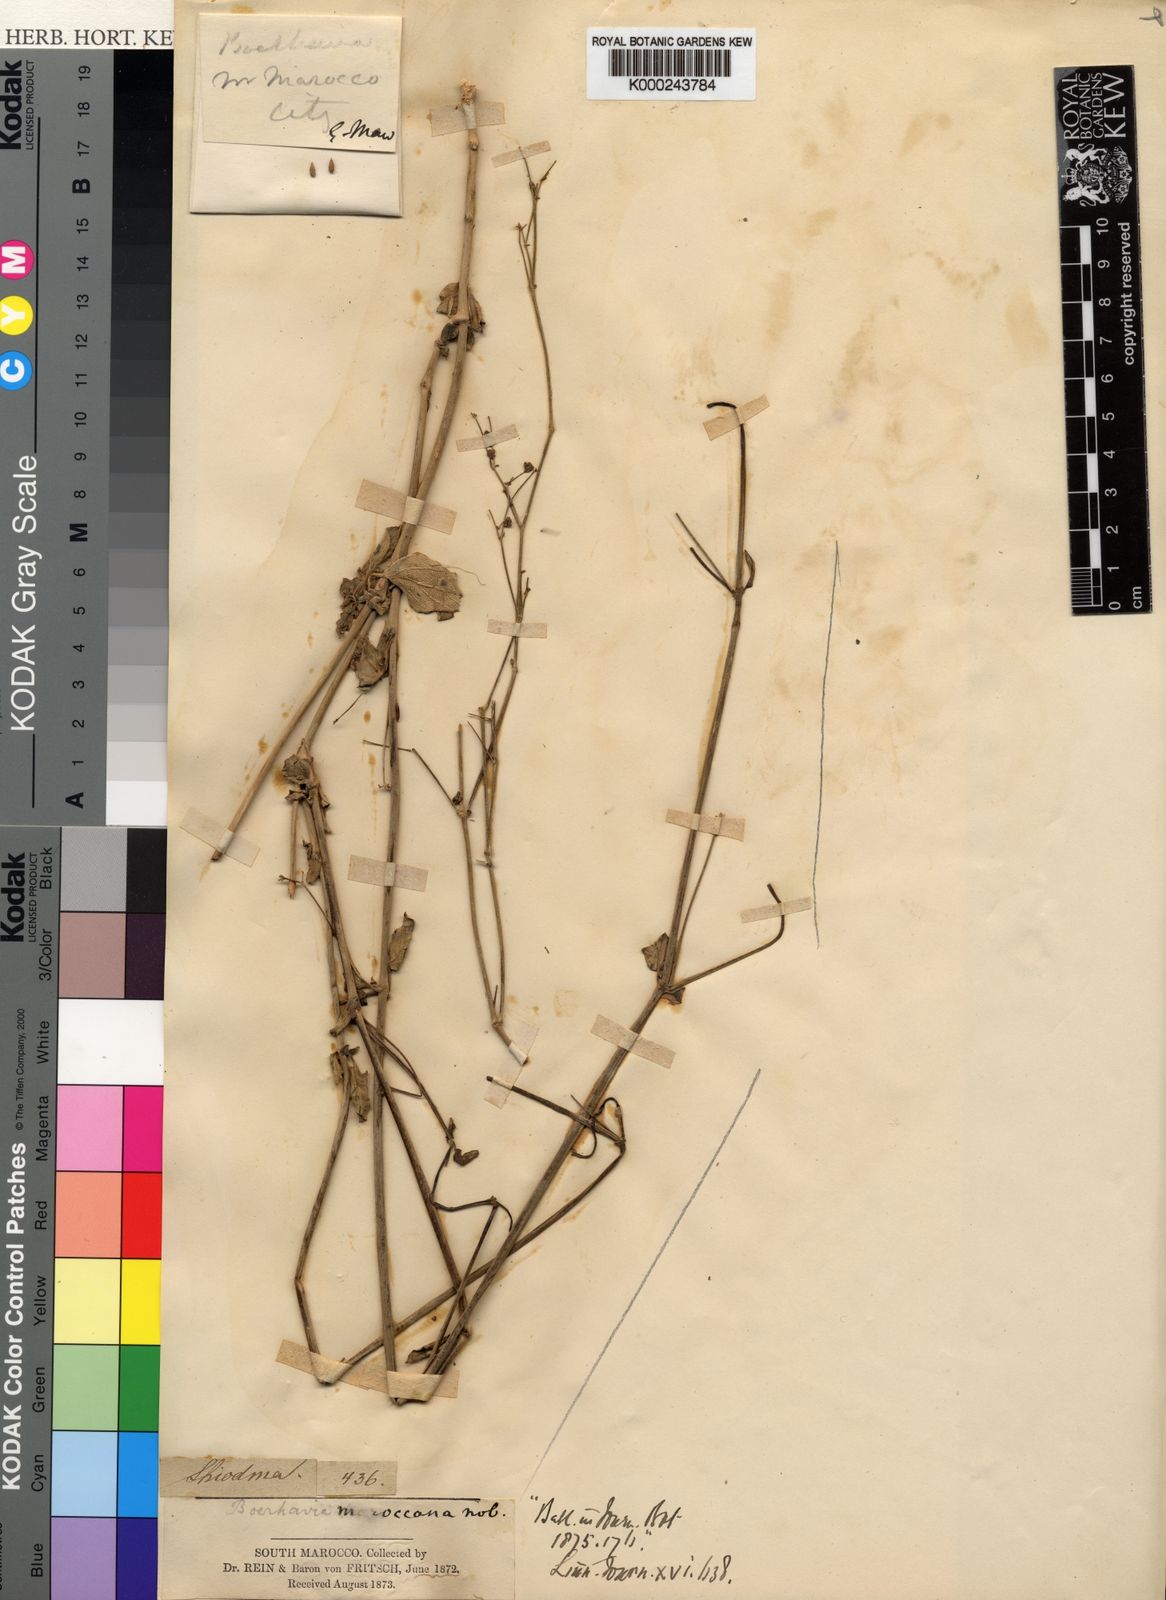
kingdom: Plantae
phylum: Tracheophyta
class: Magnoliopsida
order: Caryophyllales
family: Nyctaginaceae
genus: Boerhavia
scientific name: Boerhavia coccinea
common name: Scarlet spiderling
